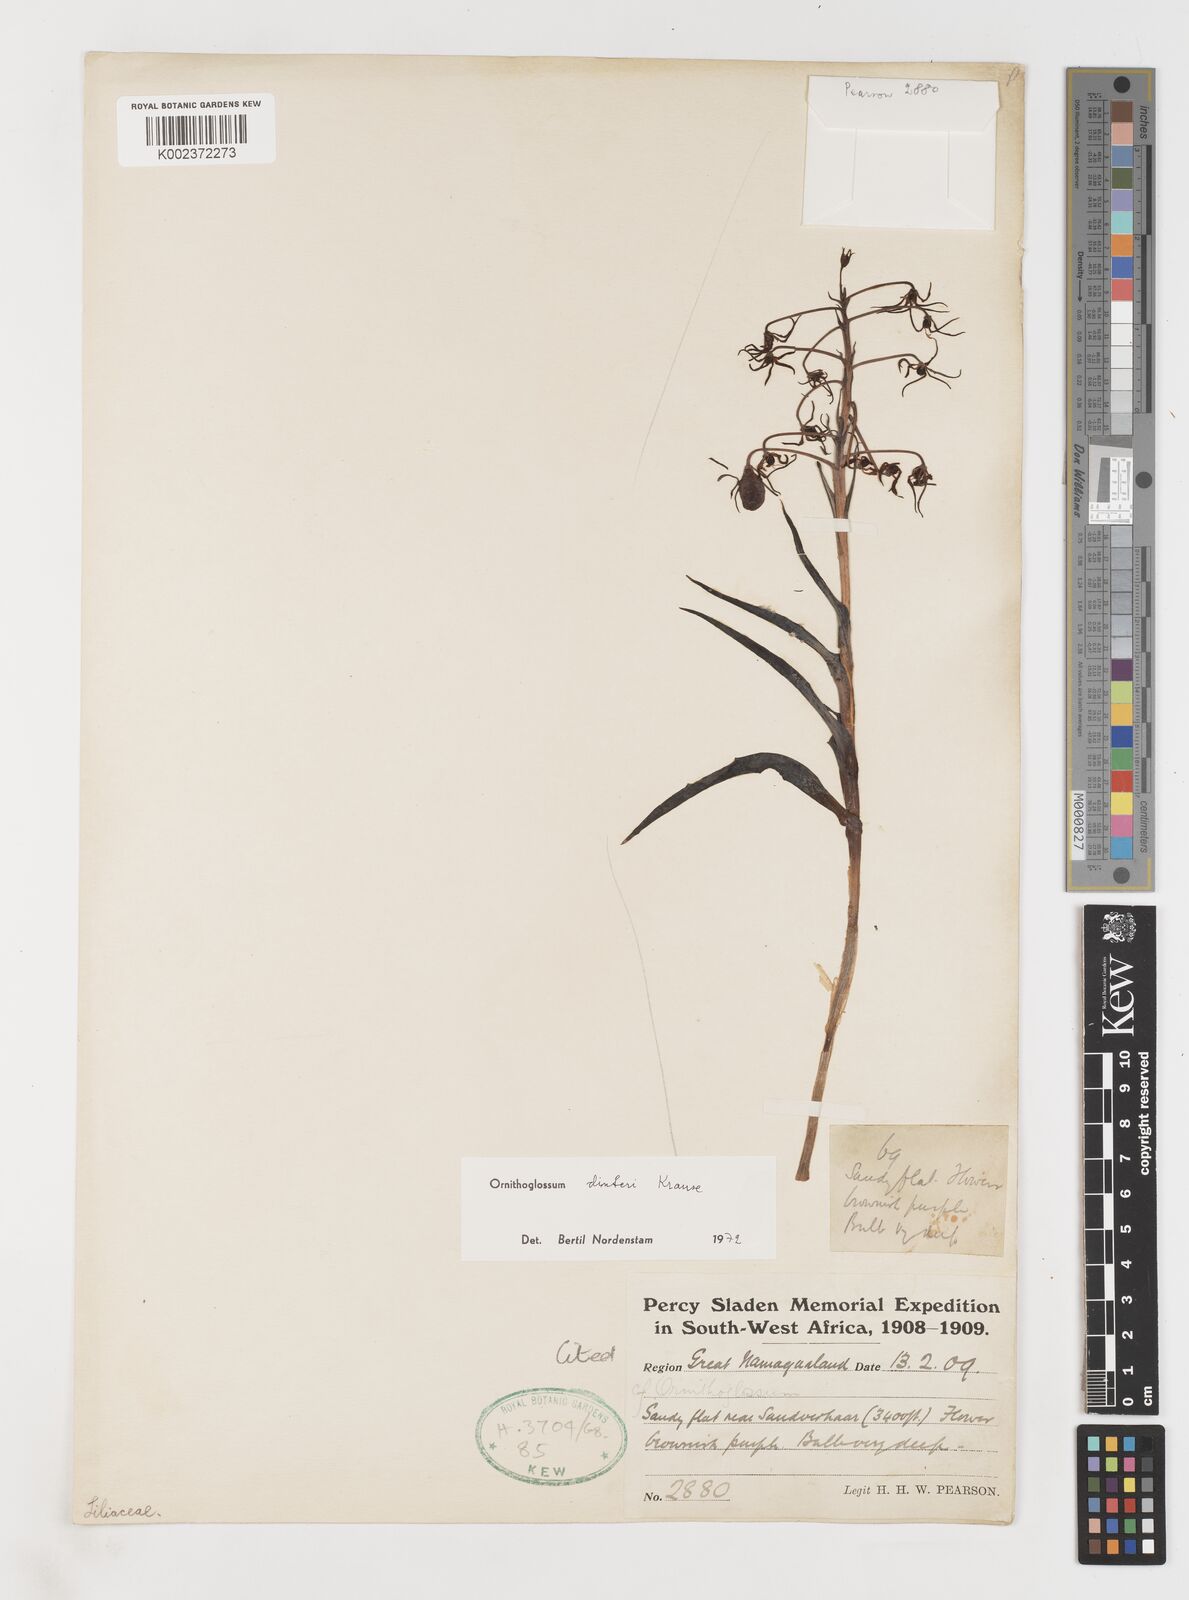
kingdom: Plantae
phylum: Tracheophyta
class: Liliopsida
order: Liliales
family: Colchicaceae
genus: Ornithoglossum
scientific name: Ornithoglossum dinteri
